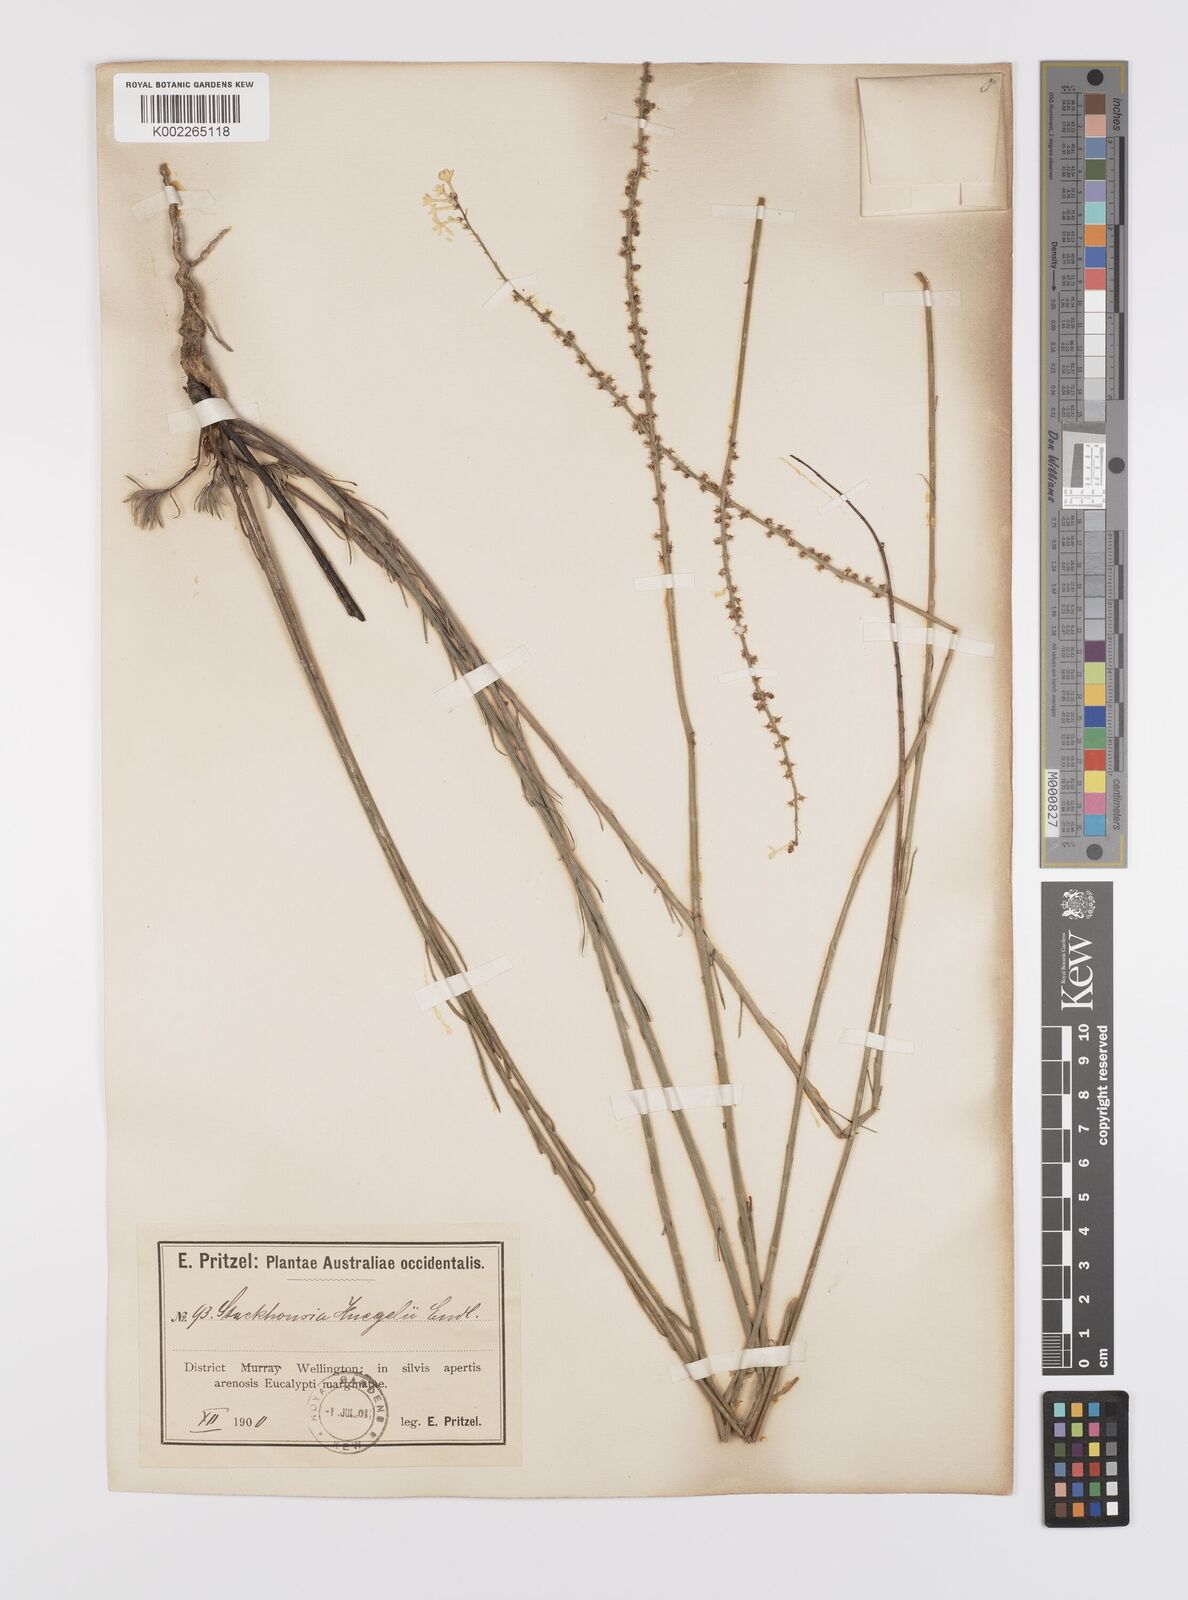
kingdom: Plantae
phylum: Tracheophyta
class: Magnoliopsida
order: Celastrales
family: Celastraceae
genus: Stackhousia
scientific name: Stackhousia monogyna
